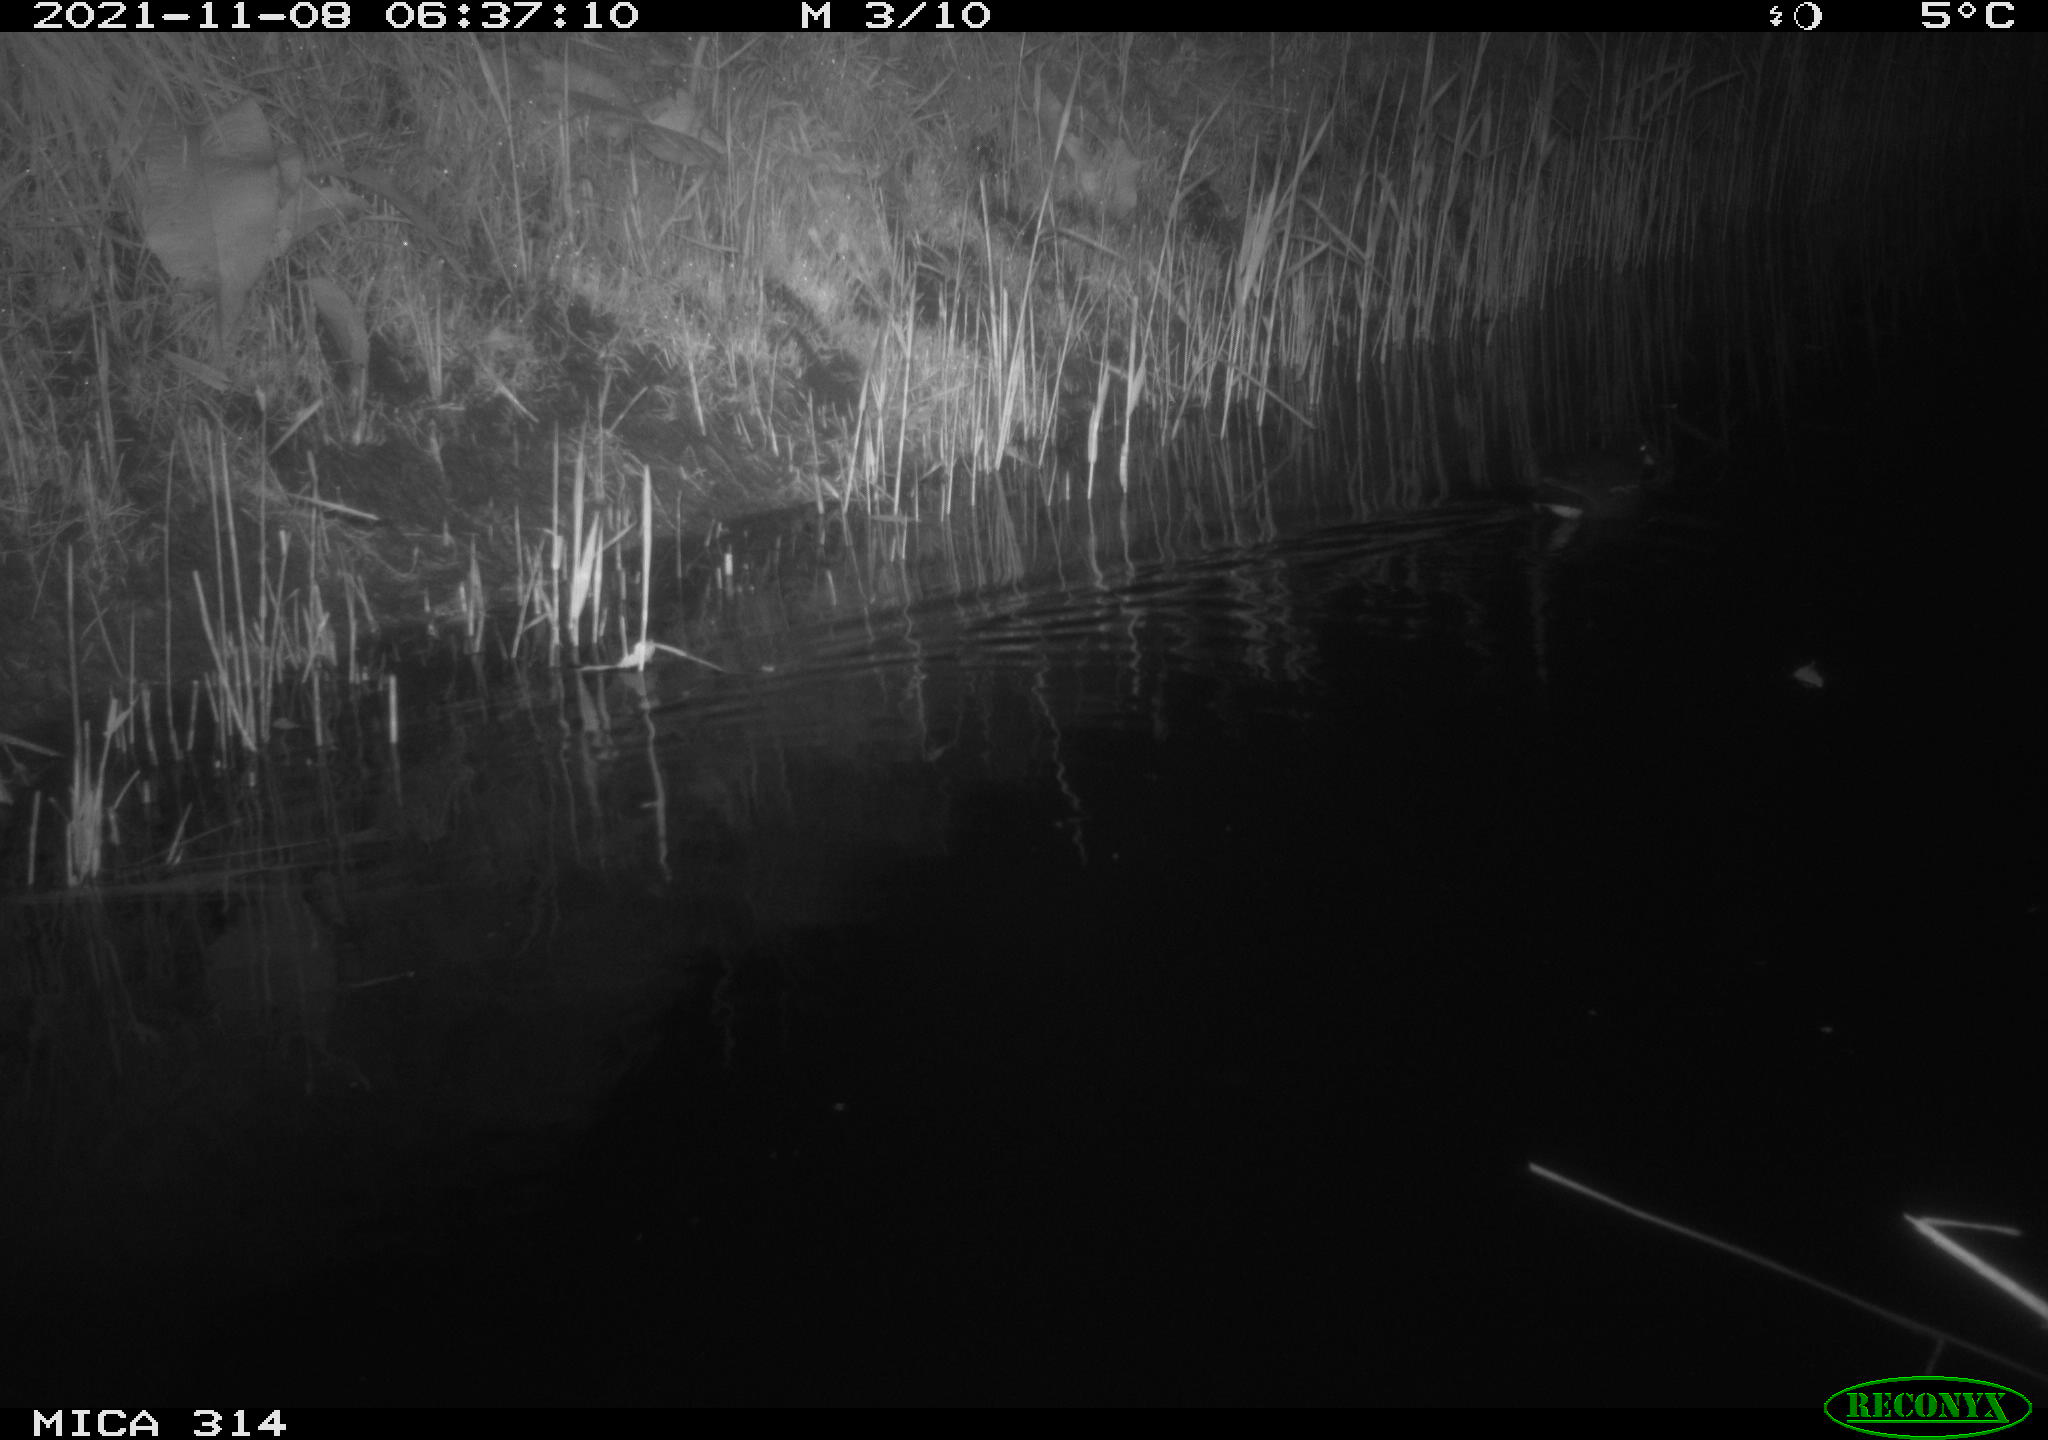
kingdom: Animalia
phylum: Chordata
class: Aves
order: Gruiformes
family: Rallidae
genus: Gallinula
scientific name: Gallinula chloropus
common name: Common moorhen
